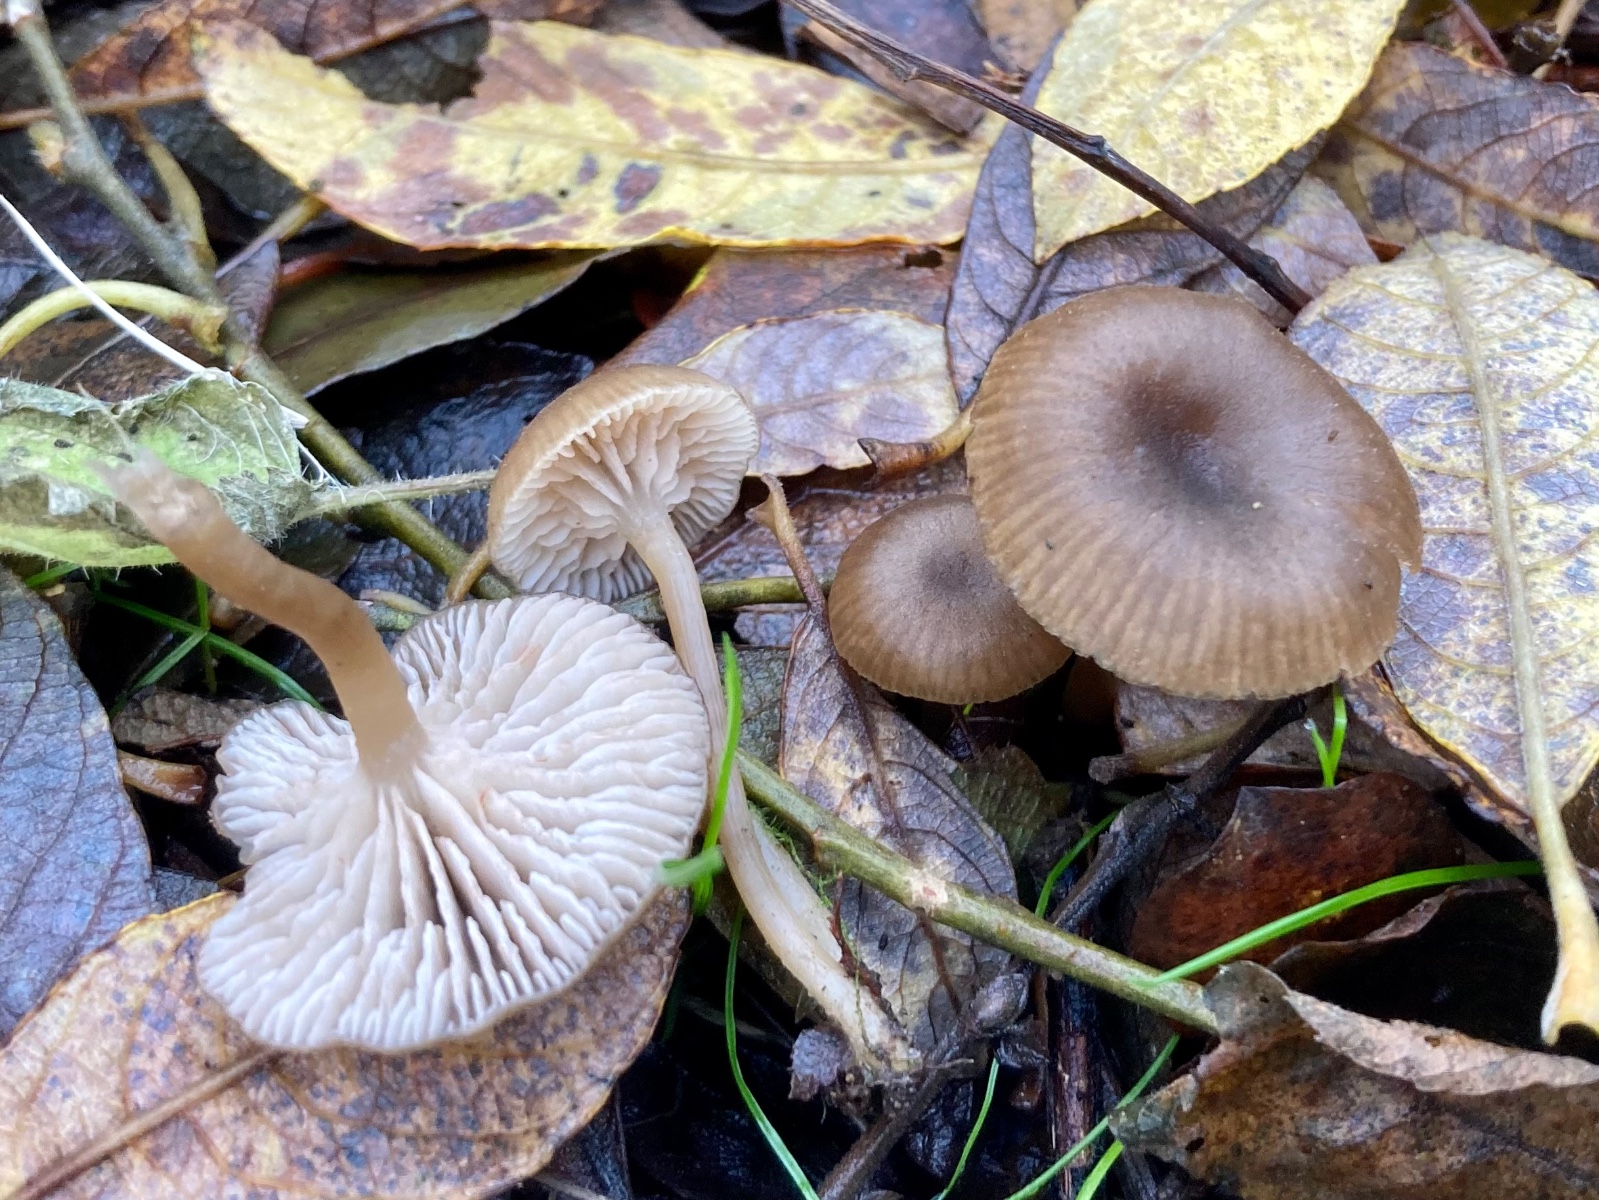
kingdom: Fungi
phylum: Basidiomycota
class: Agaricomycetes
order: Agaricales
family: Entolomataceae
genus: Entoloma
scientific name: Entoloma politum
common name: poleret rødblad
